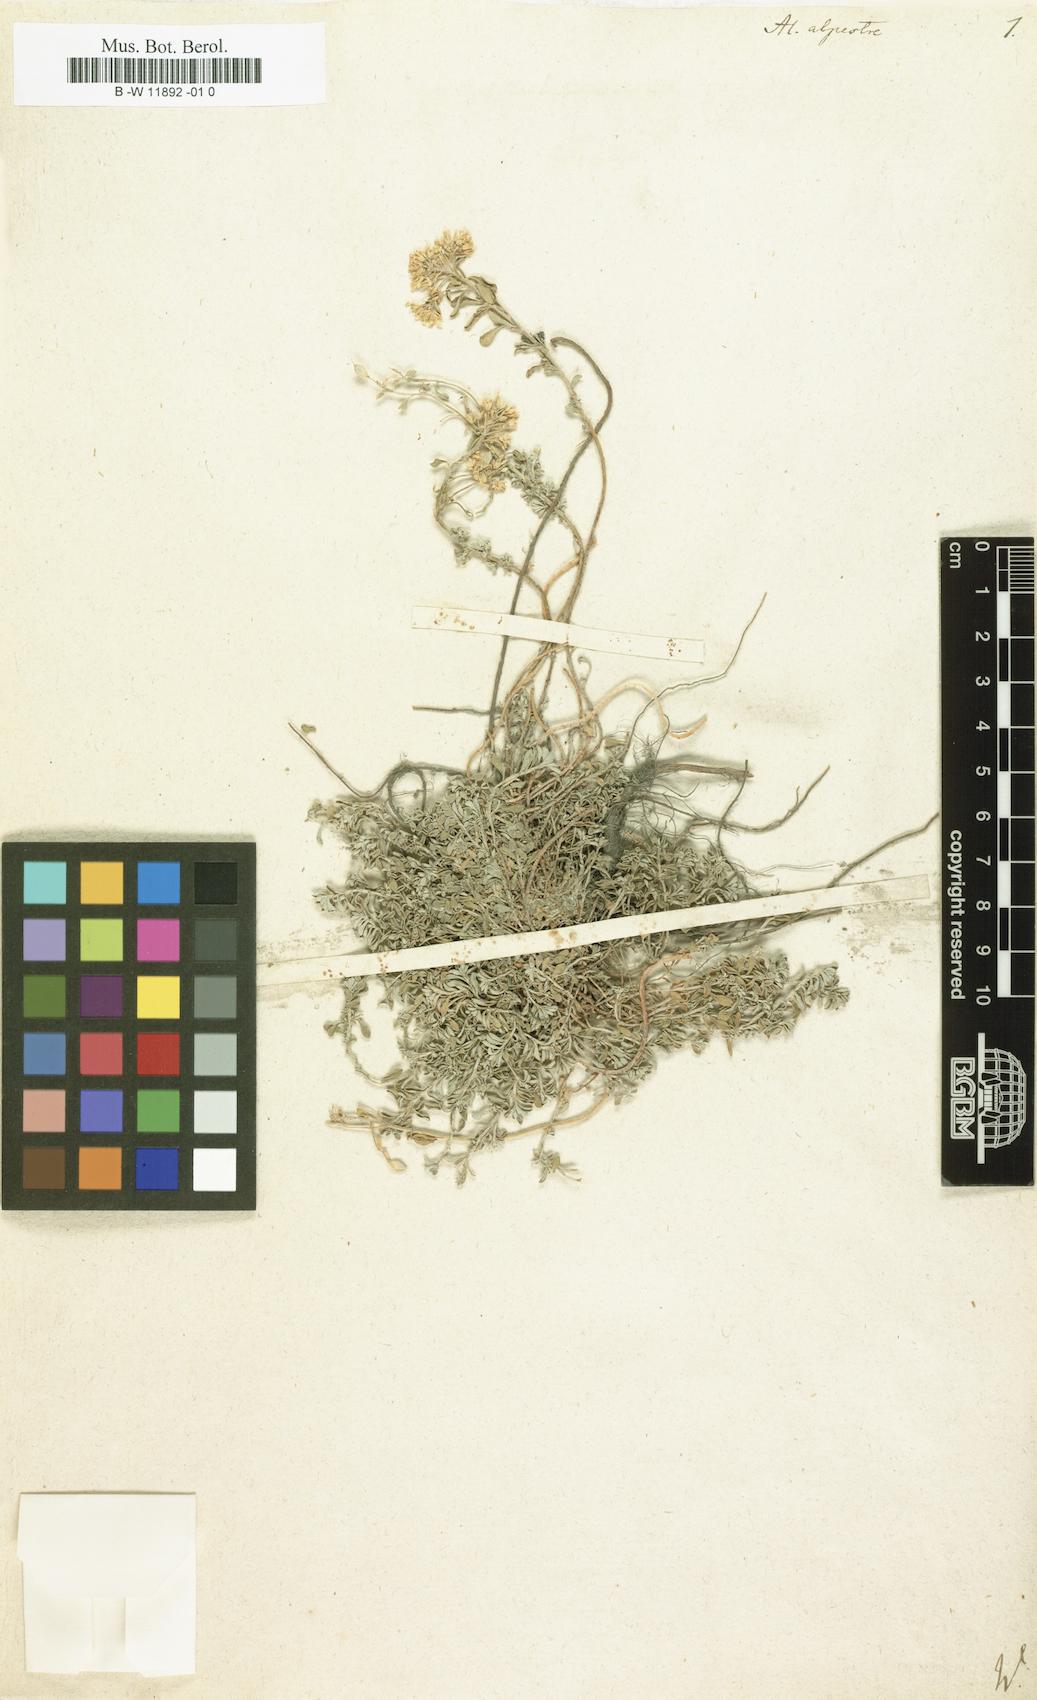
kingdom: Plantae
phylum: Tracheophyta
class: Magnoliopsida
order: Brassicales
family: Brassicaceae
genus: Odontarrhena
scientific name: Odontarrhena alpestris
